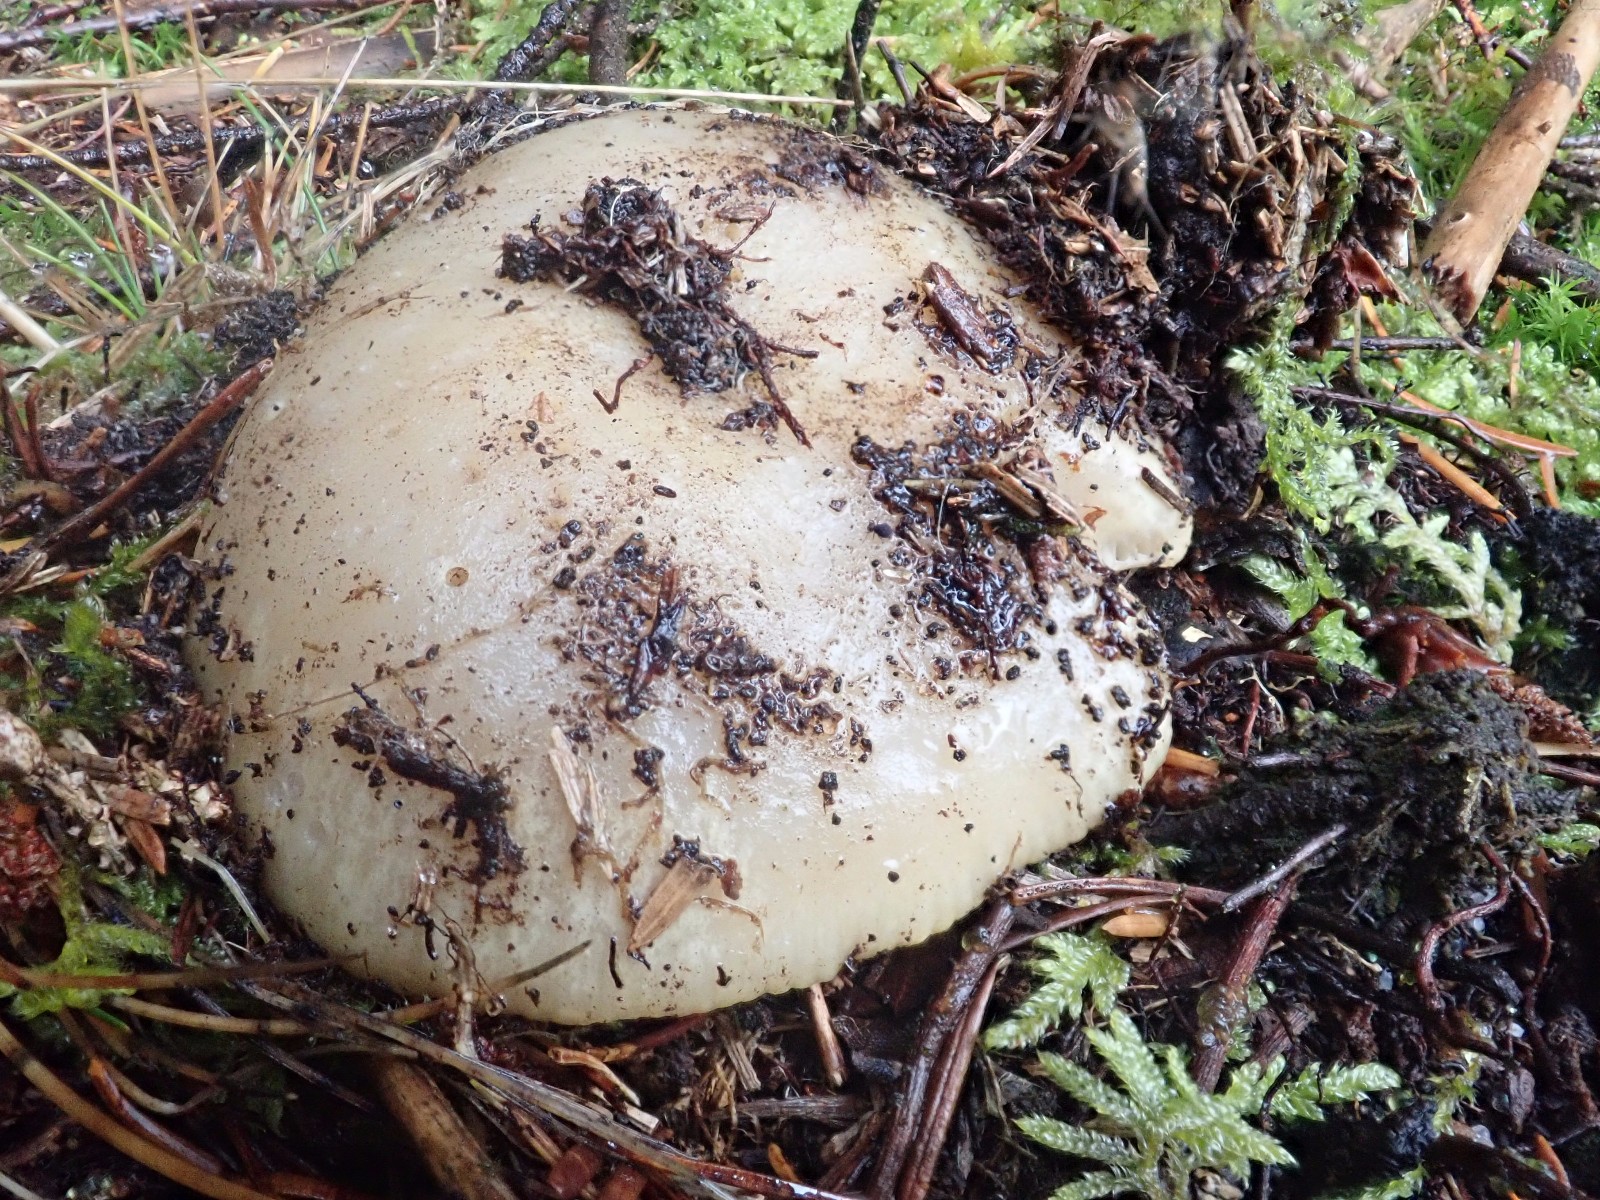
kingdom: Fungi
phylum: Basidiomycota
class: Agaricomycetes
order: Russulales
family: Russulaceae
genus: Russula
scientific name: Russula ochroleuca
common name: okkergul skørhat
